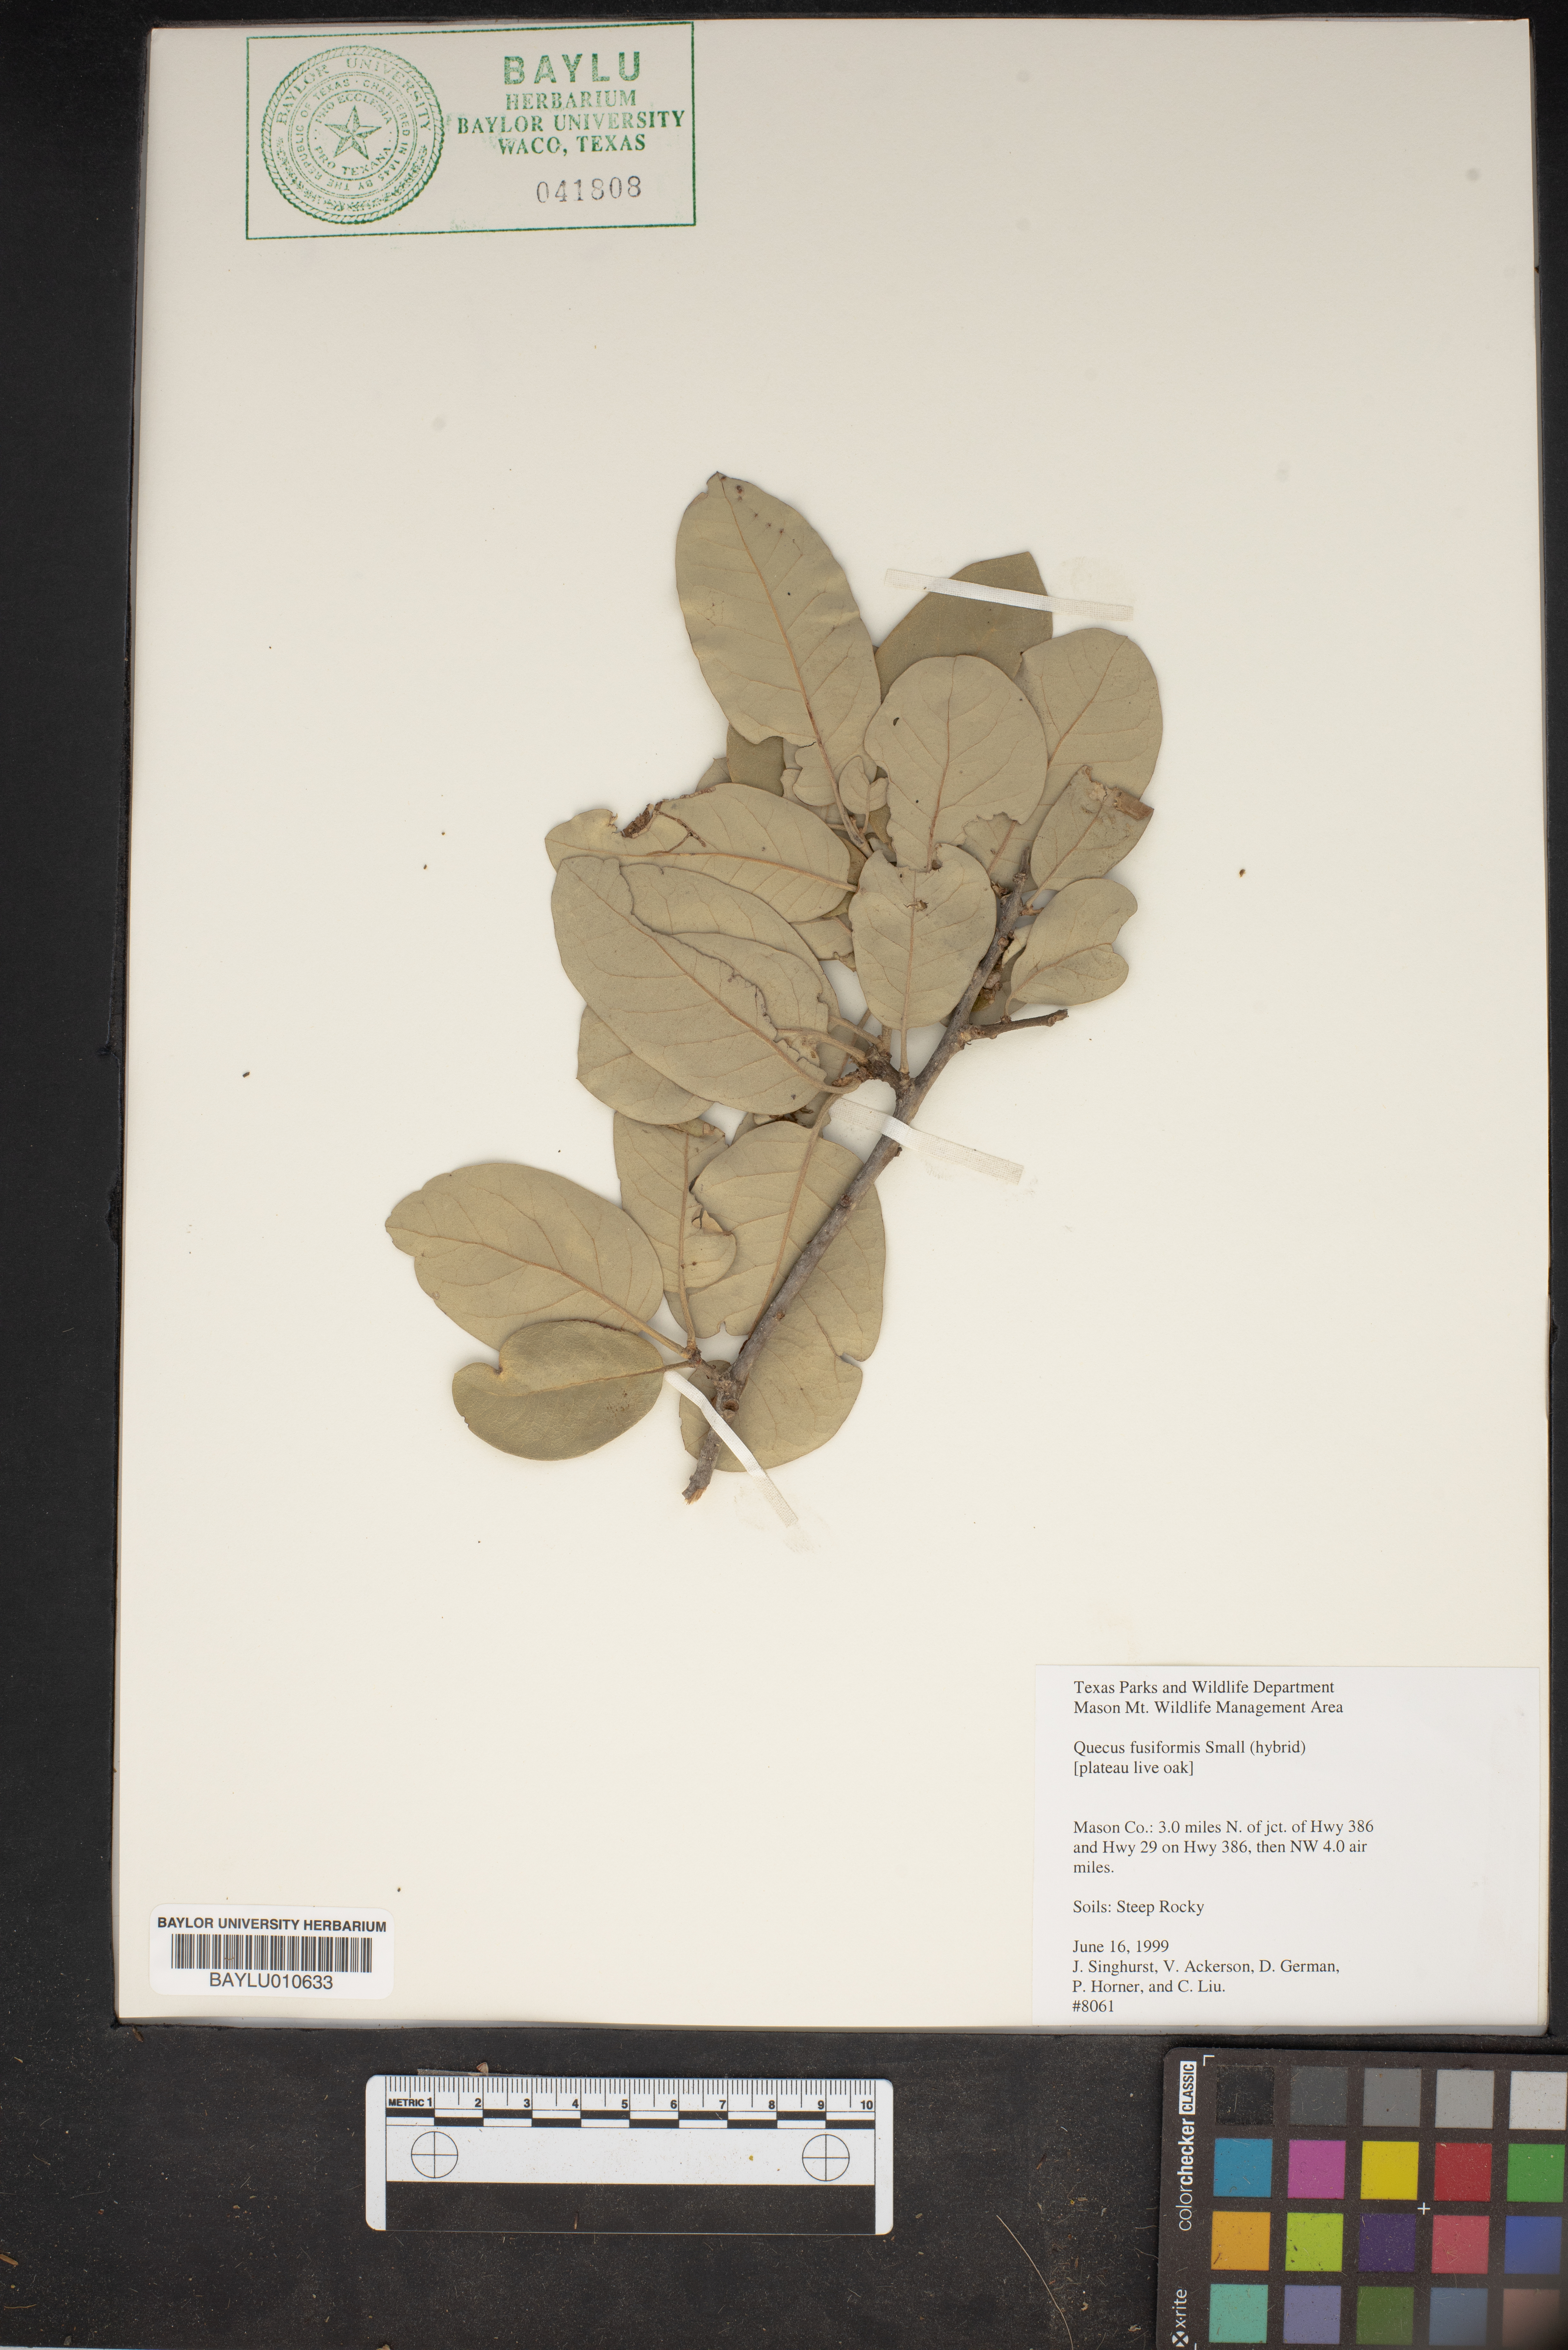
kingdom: Plantae
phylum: Tracheophyta
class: Magnoliopsida
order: Fagales
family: Fagaceae
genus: Quercus
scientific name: Quercus fusiformis
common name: Texas live oak
